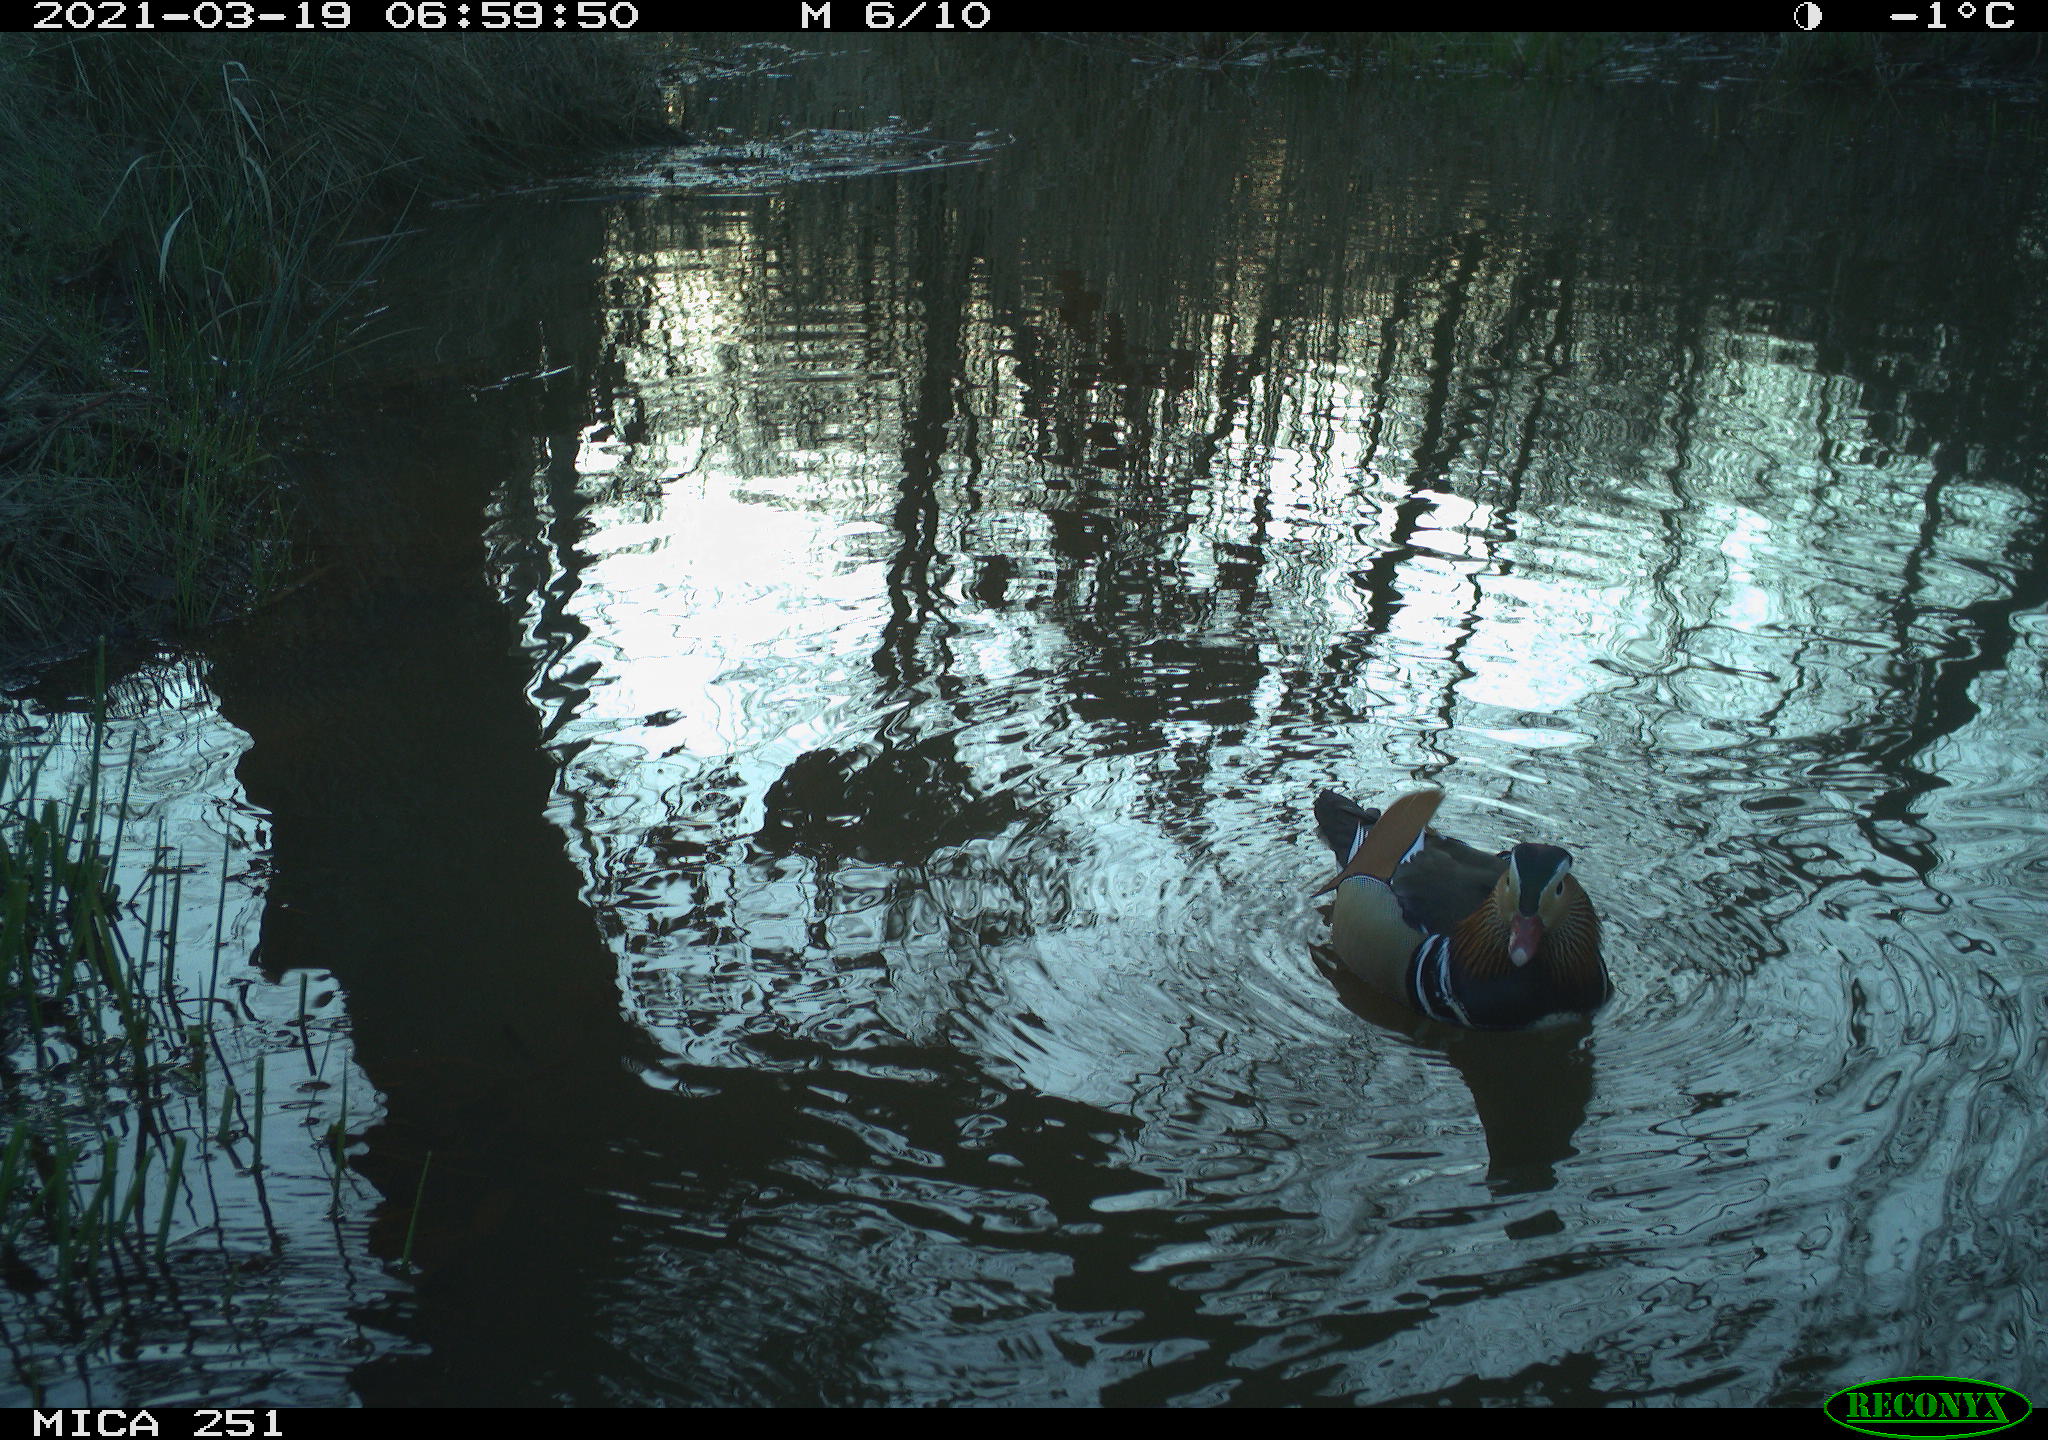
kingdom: Animalia
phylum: Chordata
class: Aves
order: Anseriformes
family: Anatidae
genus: Aix
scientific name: Aix galericulata
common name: Mandarin duck
